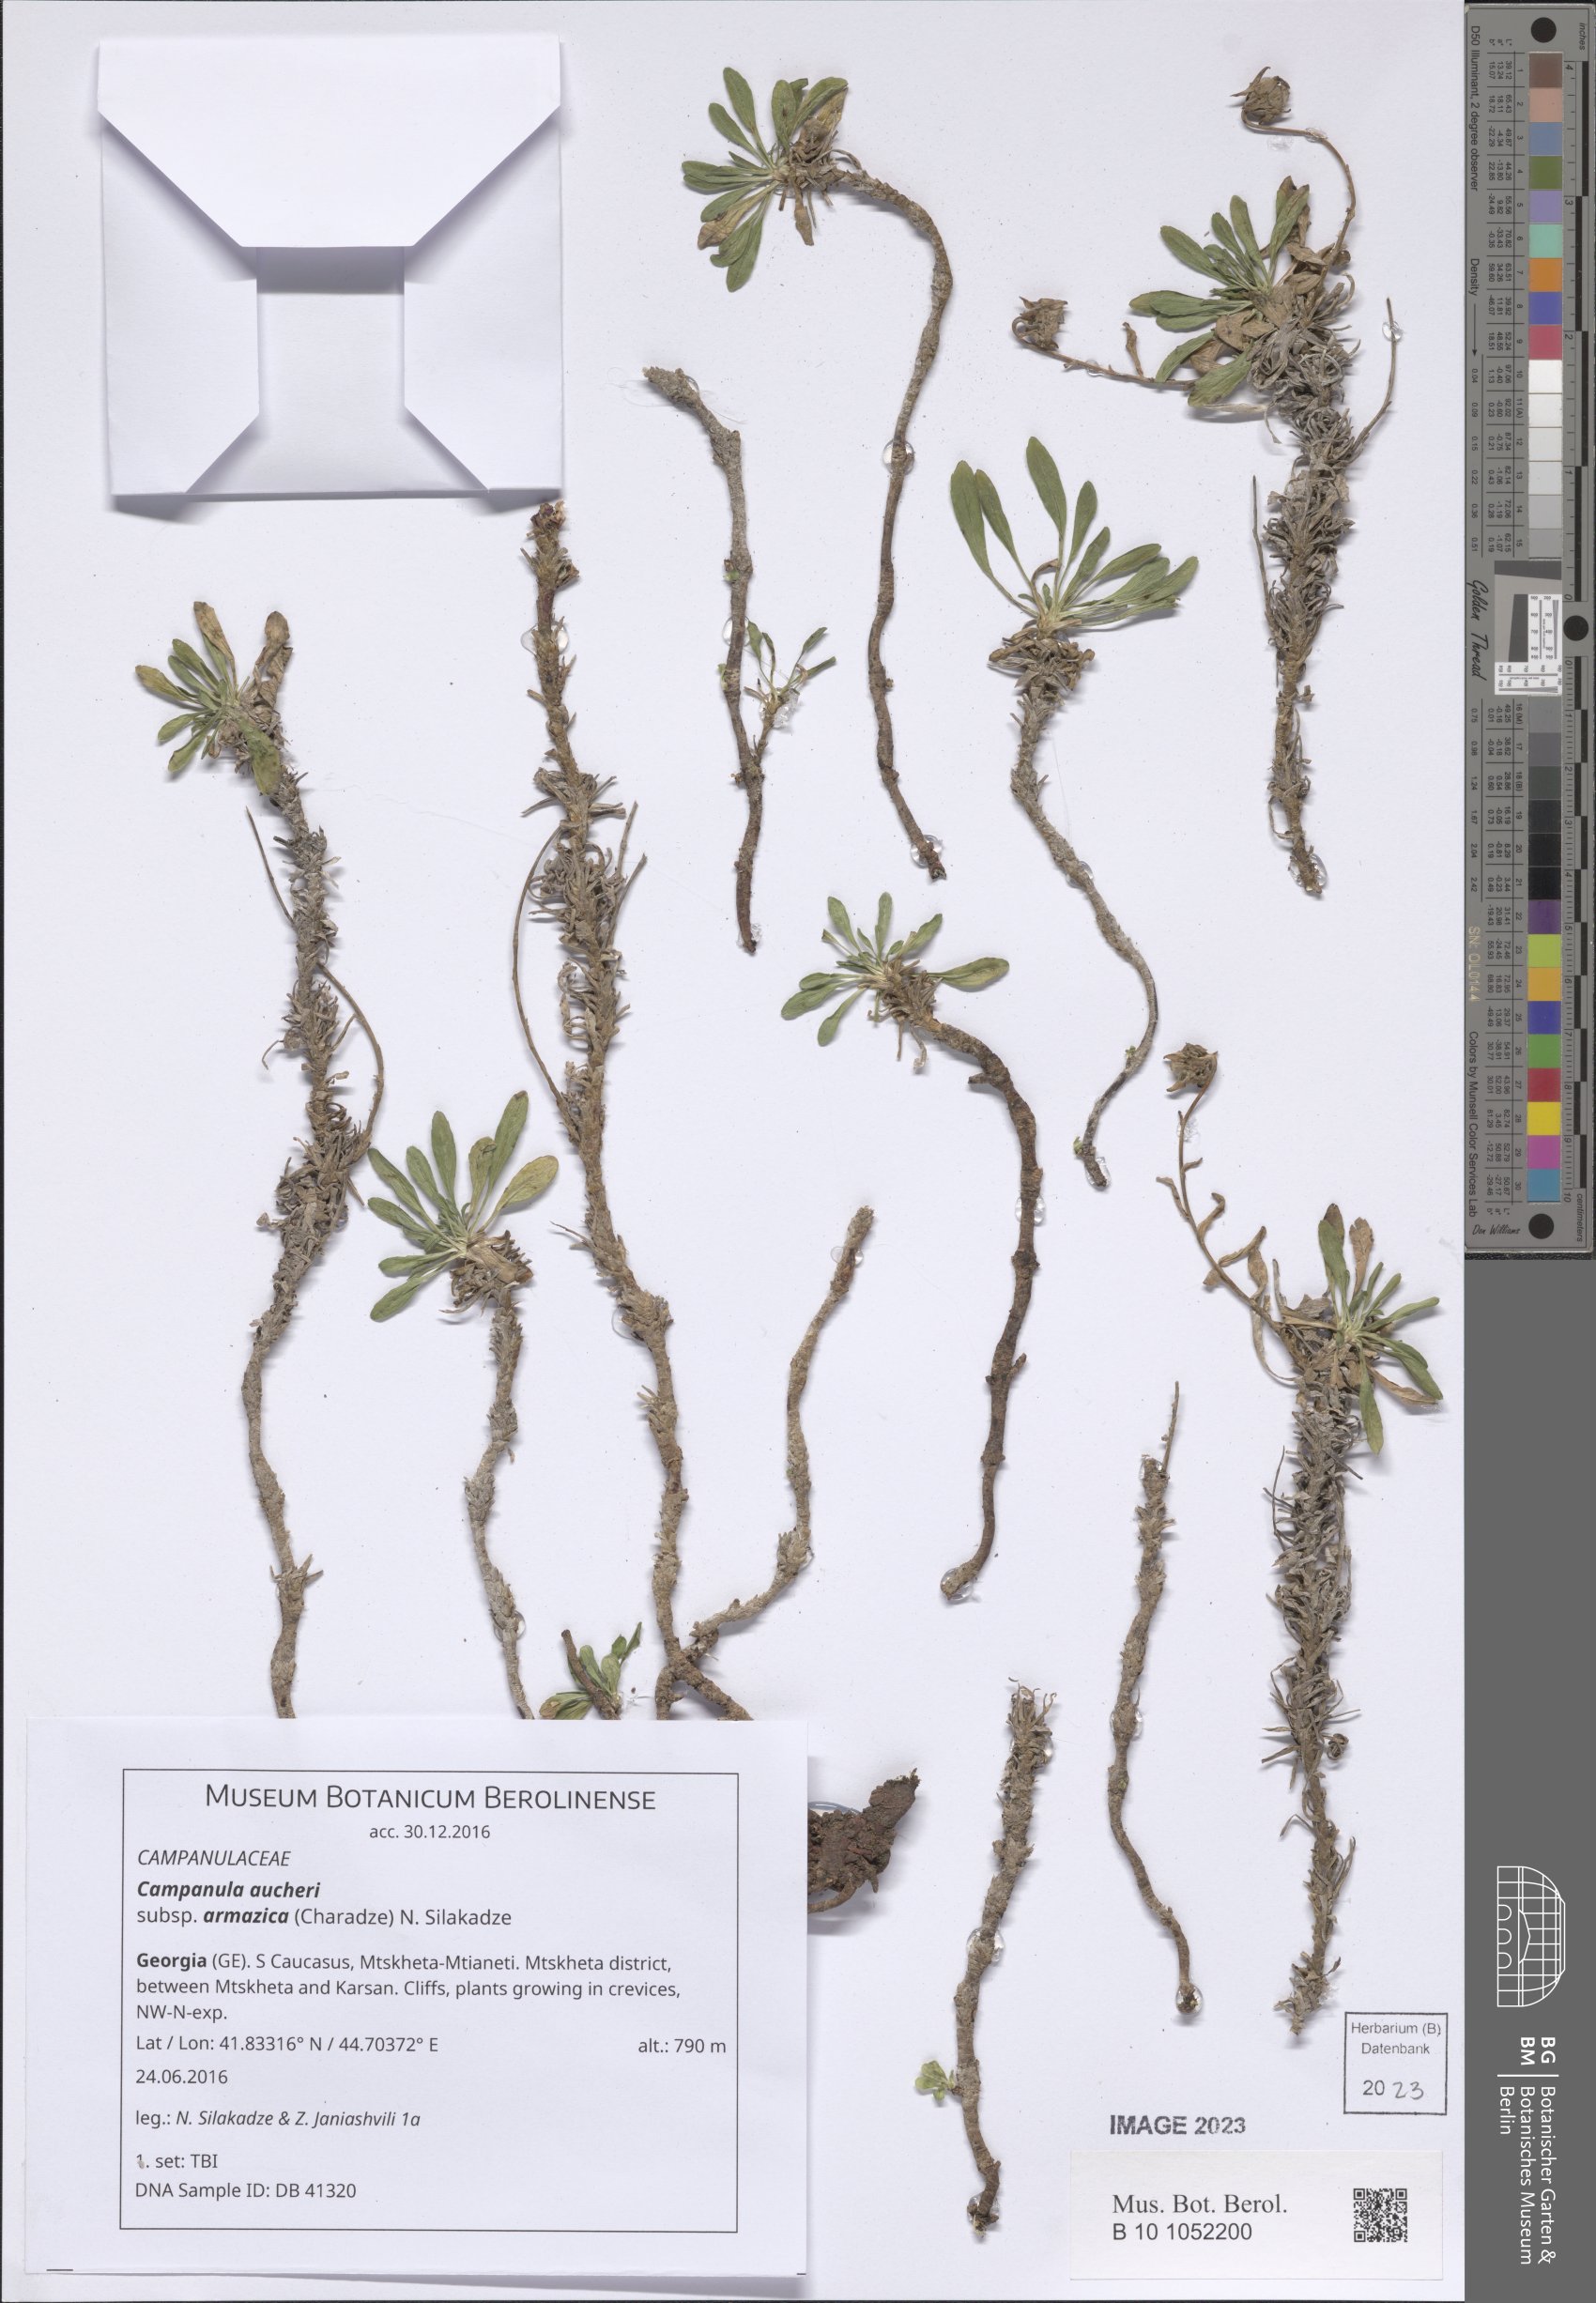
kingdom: Plantae
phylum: Tracheophyta
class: Magnoliopsida
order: Asterales
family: Campanulaceae
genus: Campanula
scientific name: Campanula saxifraga
